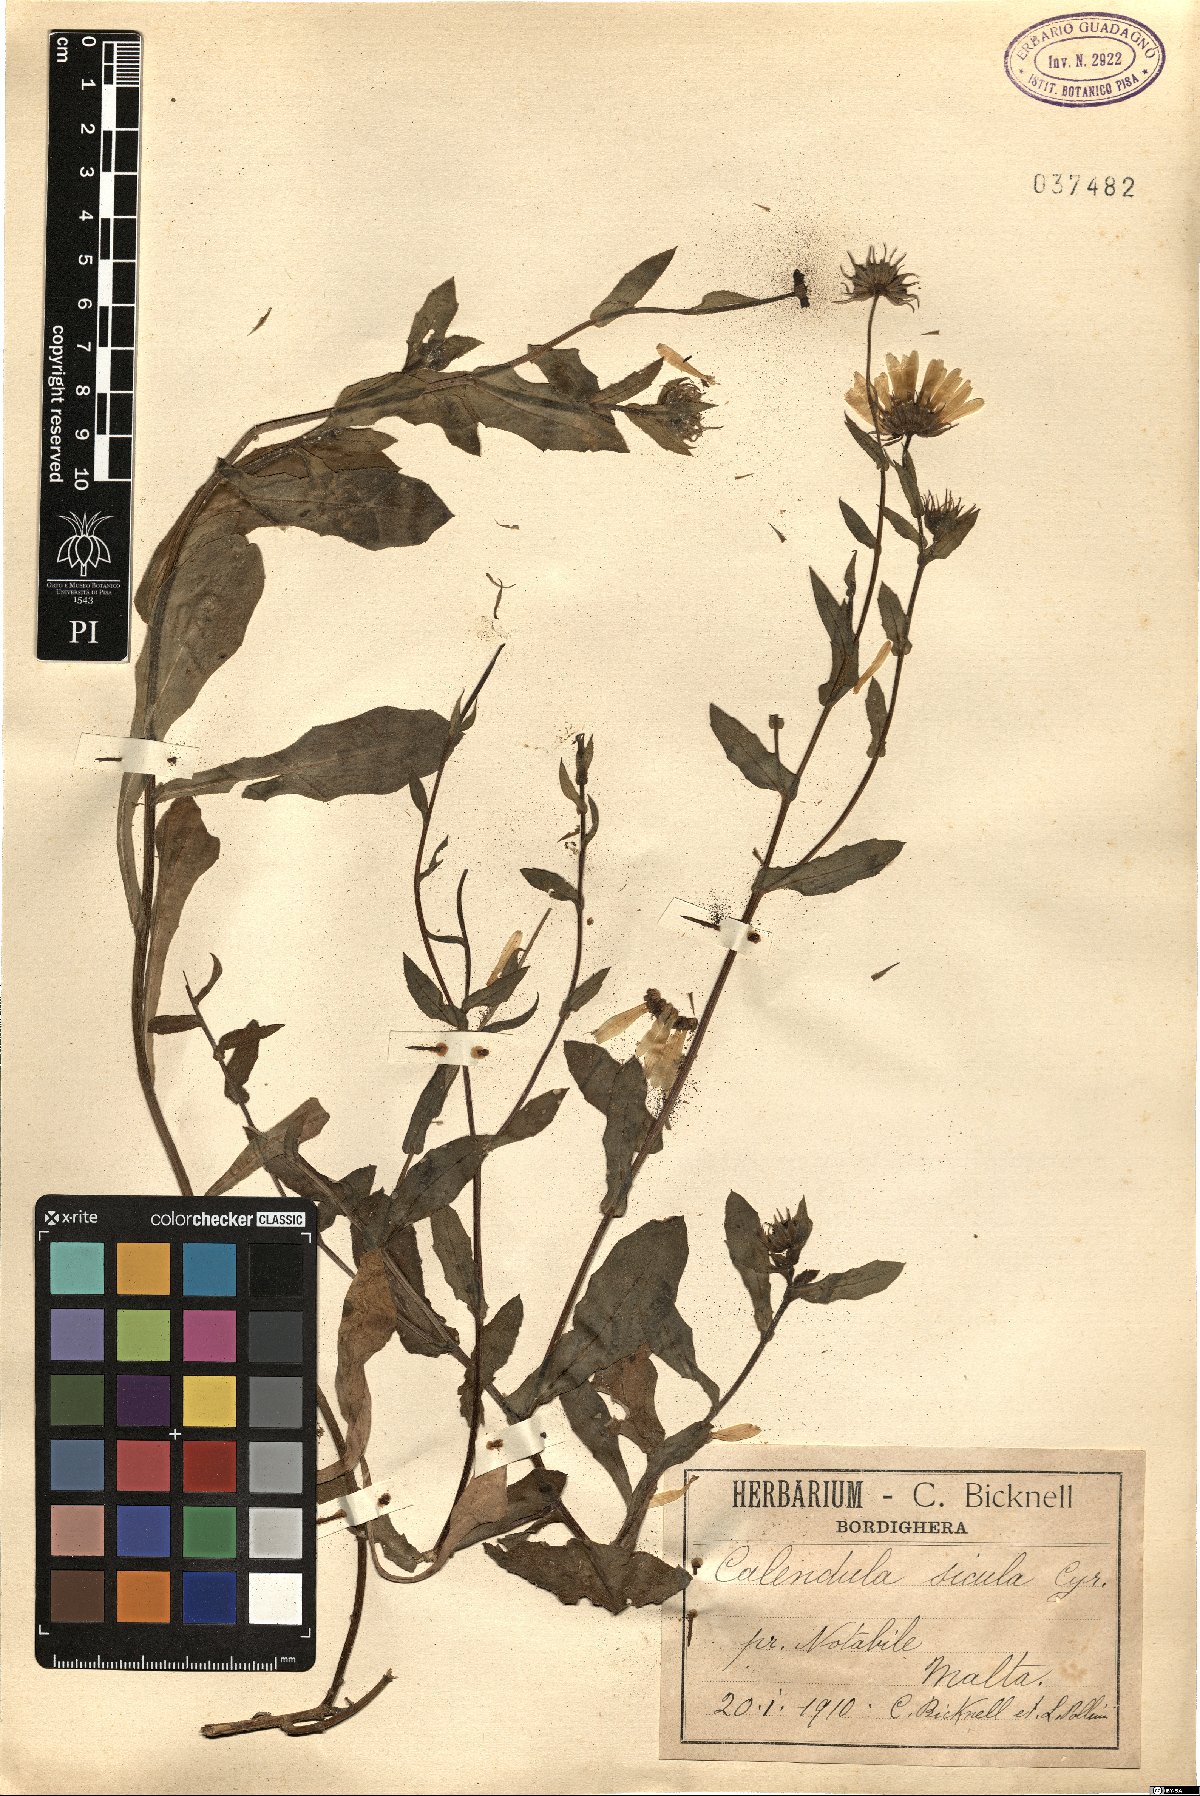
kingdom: Plantae
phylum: Tracheophyta
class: Magnoliopsida
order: Asterales
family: Asteraceae
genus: Calendula
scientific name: Calendula stellata
